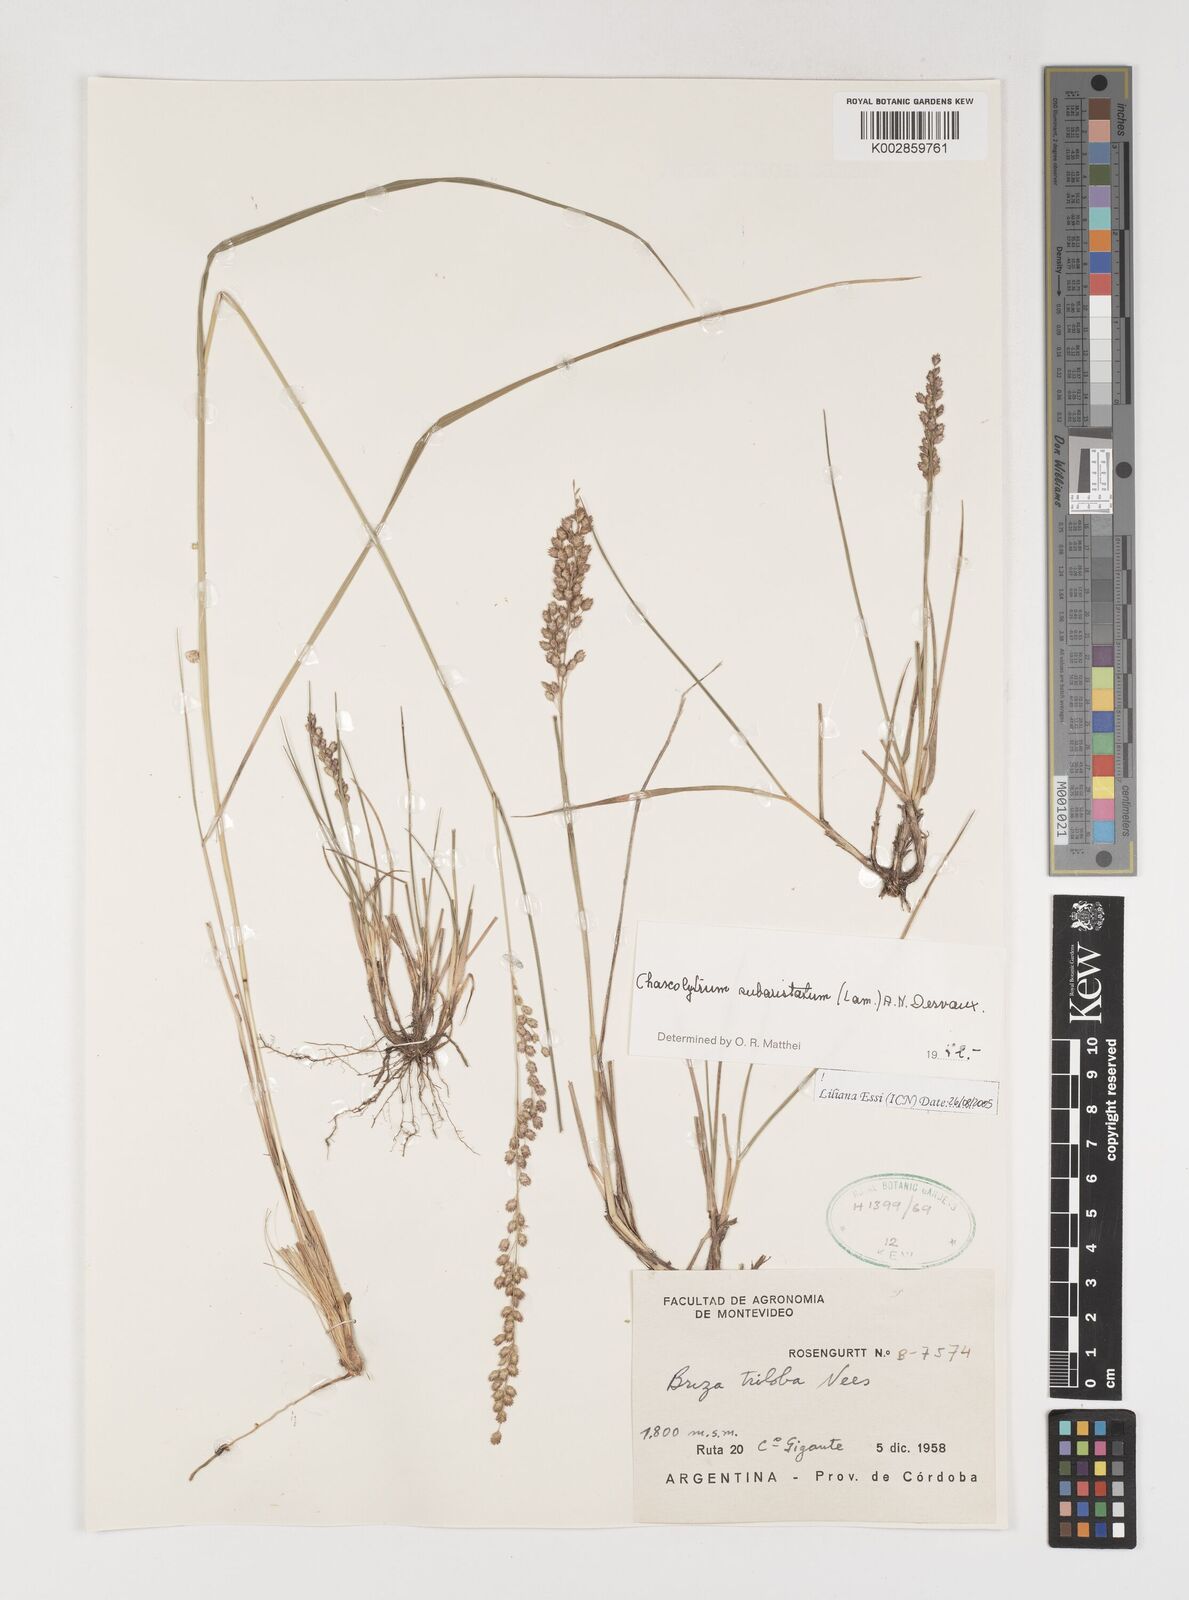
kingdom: Plantae
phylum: Tracheophyta
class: Liliopsida
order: Poales
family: Poaceae
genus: Chascolytrum
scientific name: Chascolytrum subaristatum
